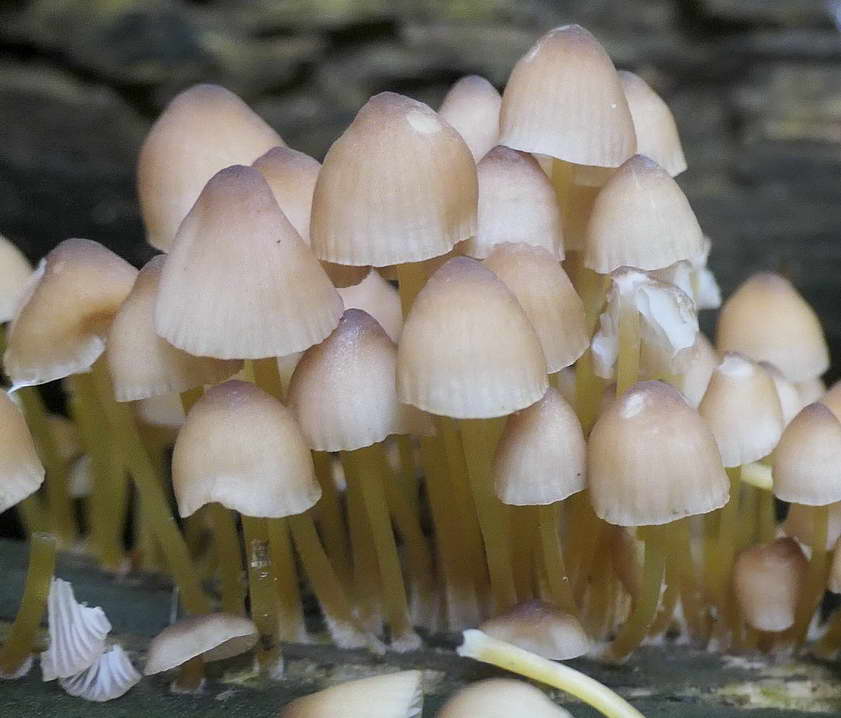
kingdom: Fungi
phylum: Basidiomycota
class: Agaricomycetes
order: Agaricales
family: Mycenaceae
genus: Mycena
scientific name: Mycena renati
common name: smuk huesvamp
